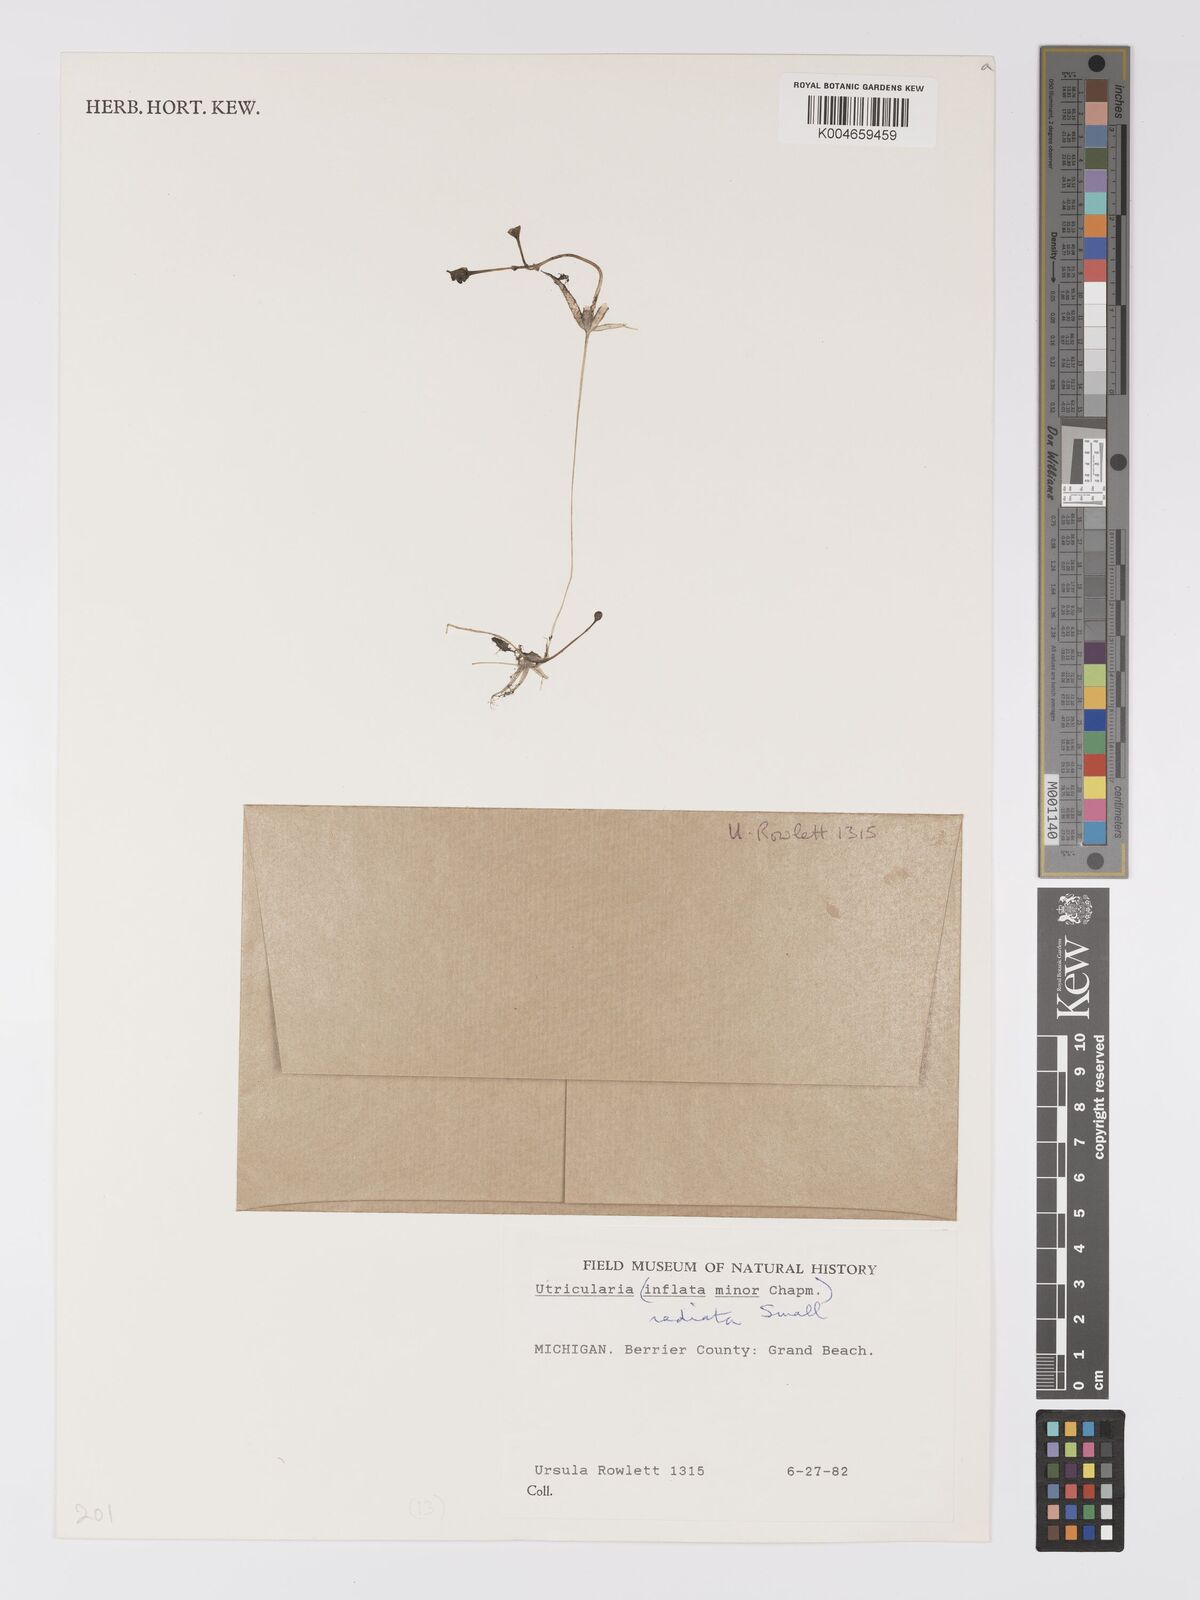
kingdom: Plantae
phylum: Tracheophyta
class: Magnoliopsida
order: Lamiales
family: Lentibulariaceae
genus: Utricularia
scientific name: Utricularia radiata
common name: Floating bladderwort
